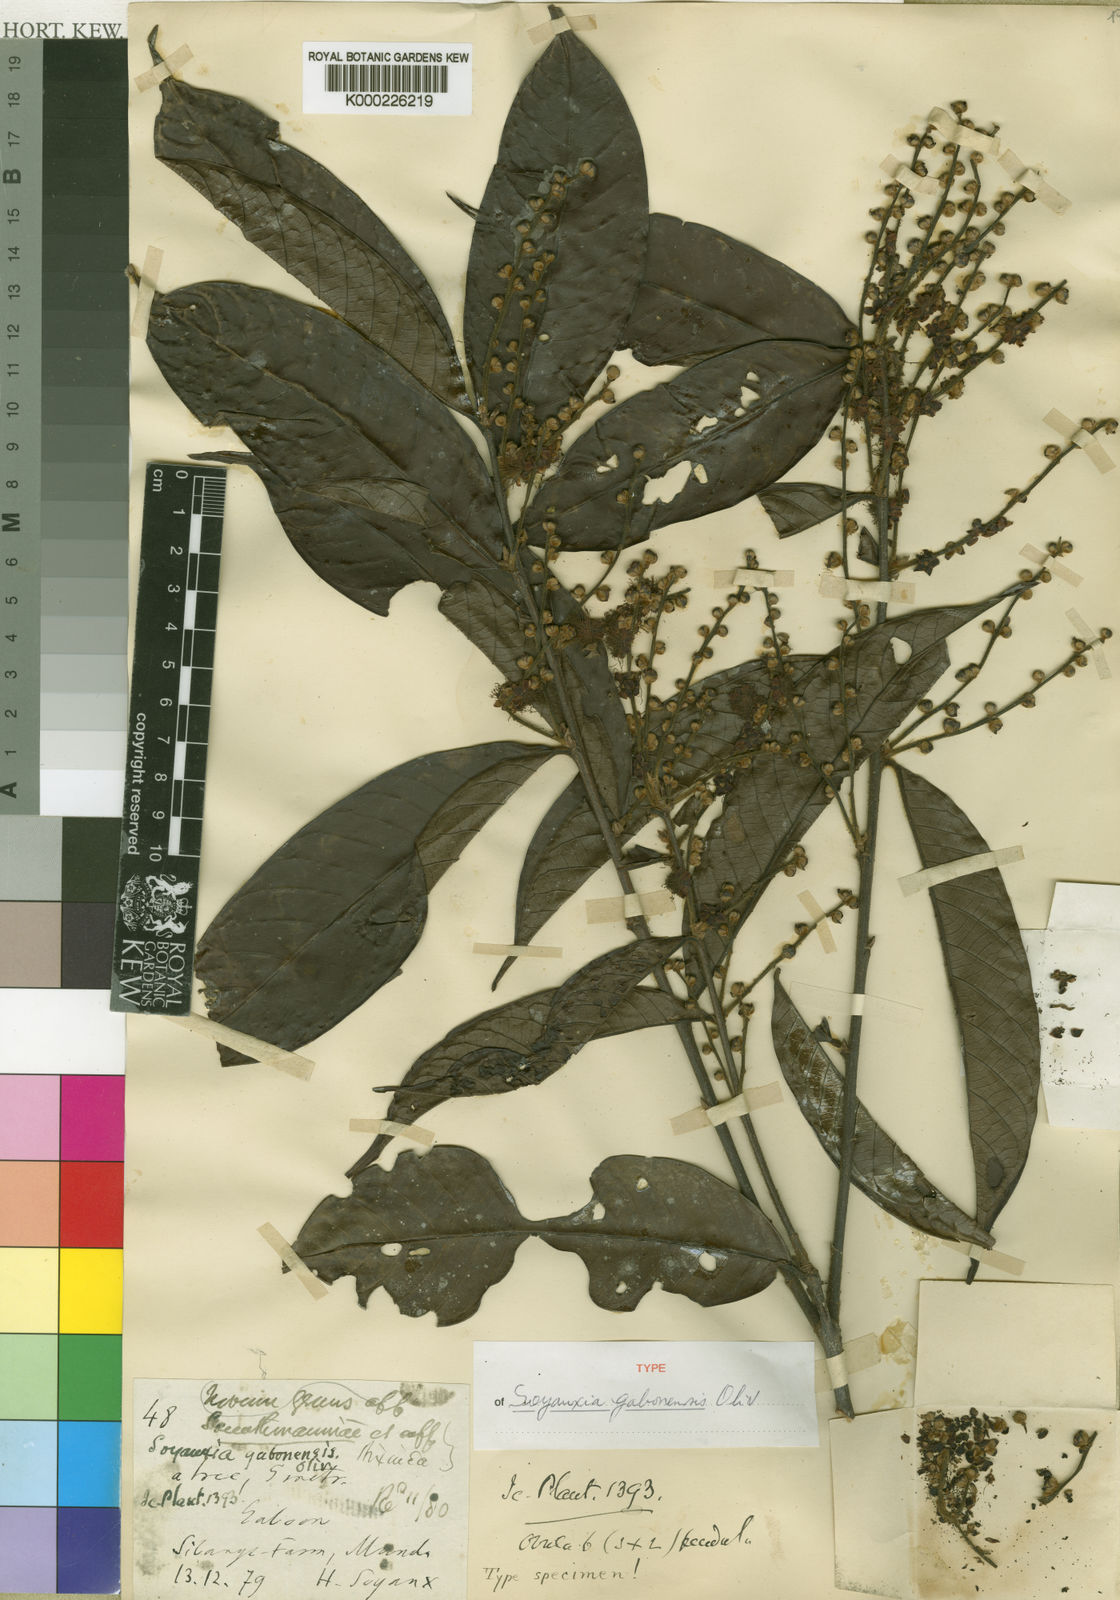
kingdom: Plantae
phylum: Tracheophyta
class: Magnoliopsida
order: Saxifragales
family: Peridiscaceae
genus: Soyauxia
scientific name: Soyauxia gabonensis
